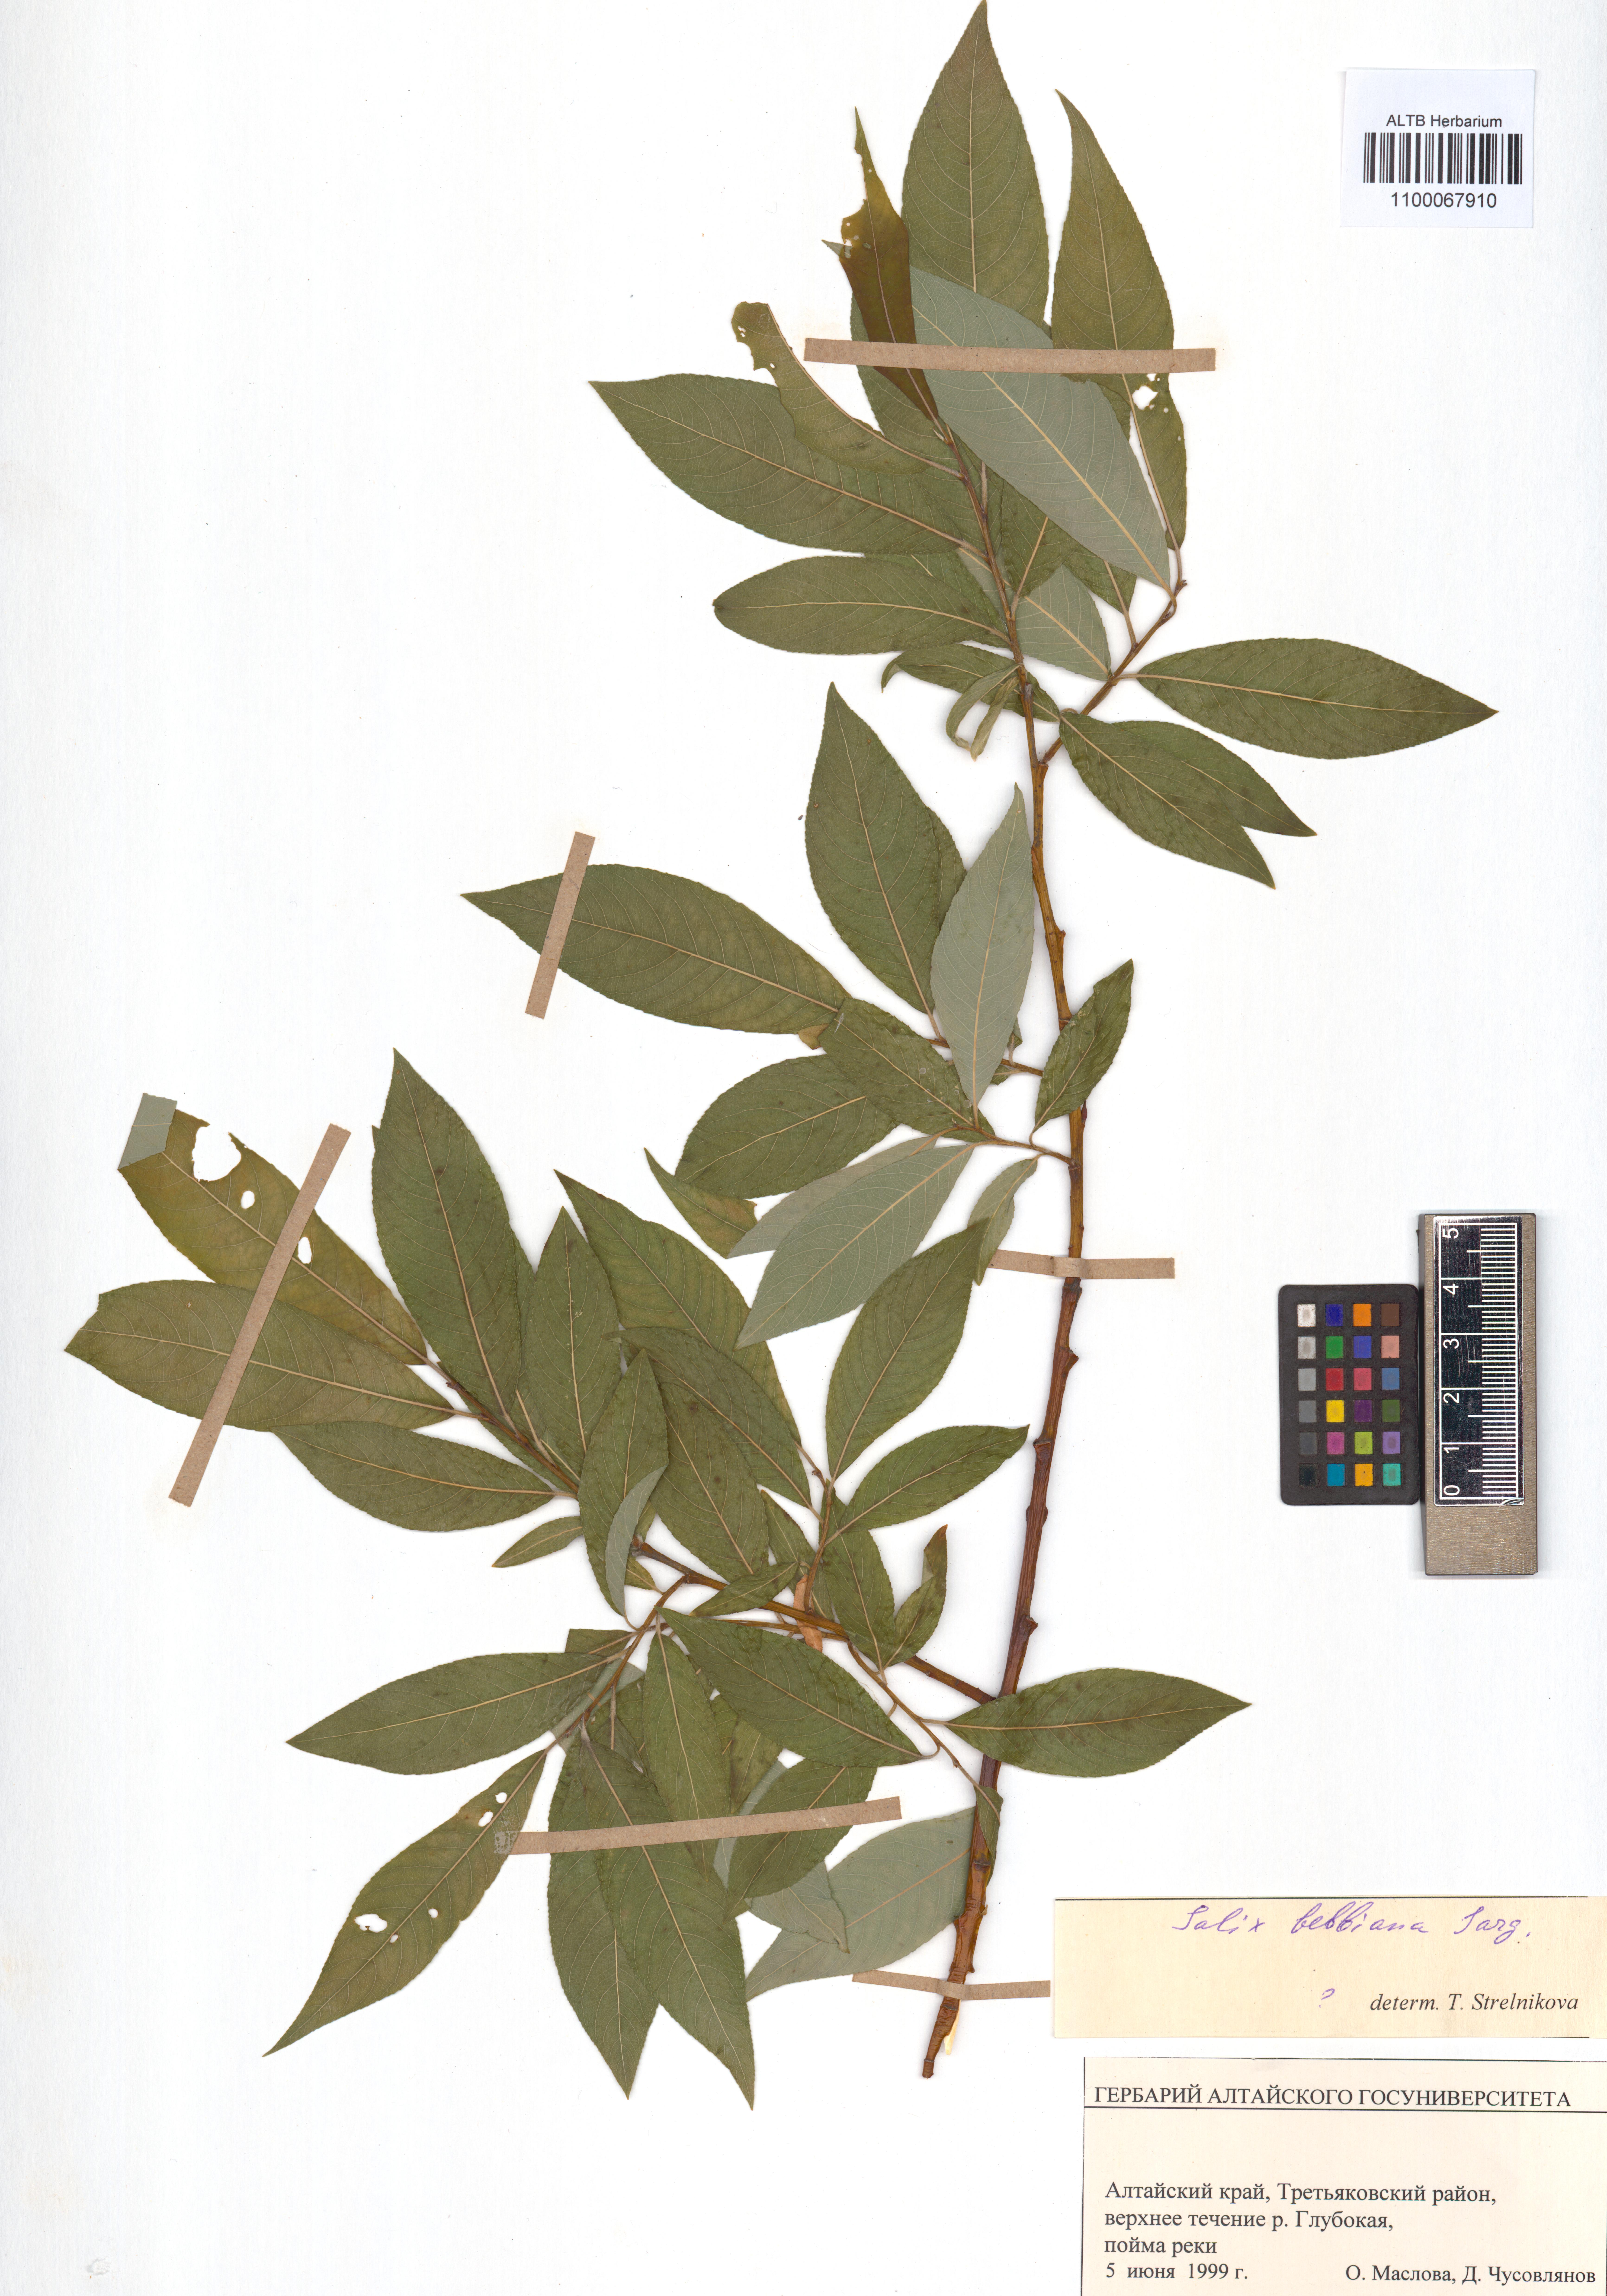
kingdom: Plantae
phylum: Tracheophyta
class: Magnoliopsida
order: Malpighiales
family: Salicaceae
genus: Salix
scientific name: Salix bebbiana
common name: Bebb's willow
